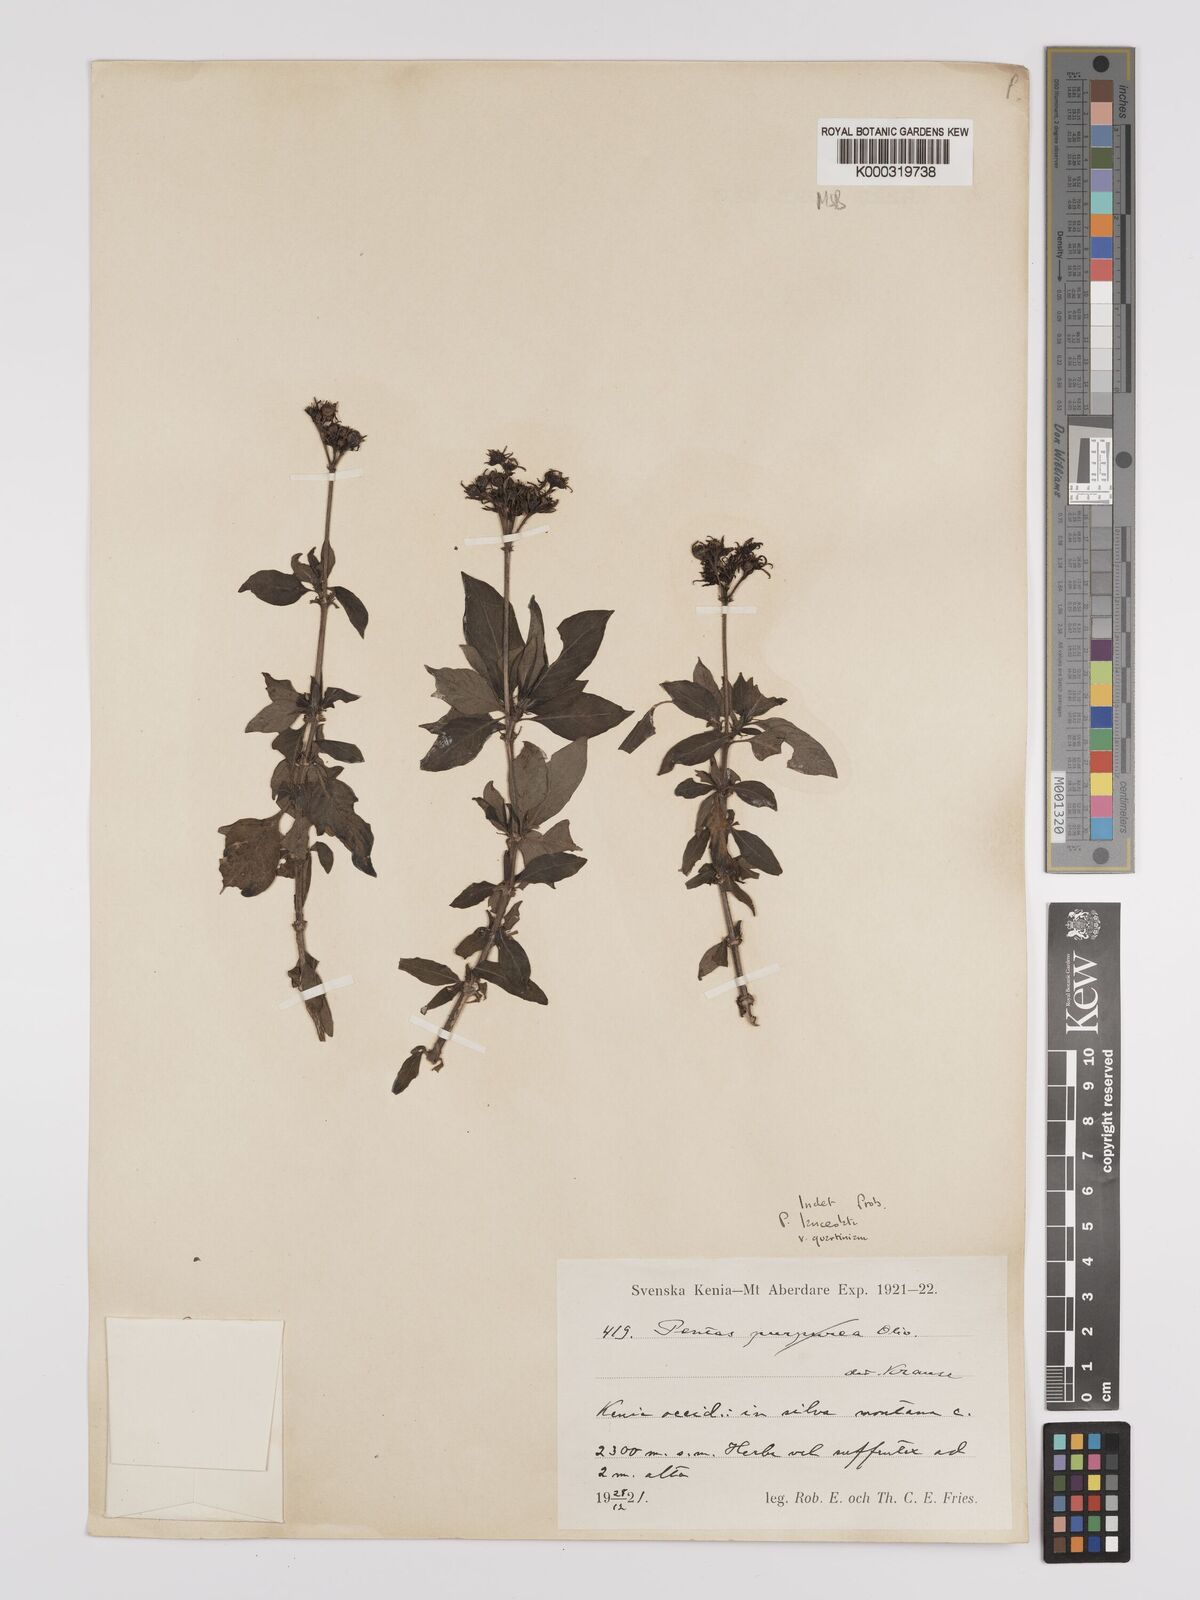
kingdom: Plantae
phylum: Tracheophyta
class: Magnoliopsida
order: Gentianales
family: Rubiaceae
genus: Pentas
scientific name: Pentas lanceolata
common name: Egyptian starcluster
